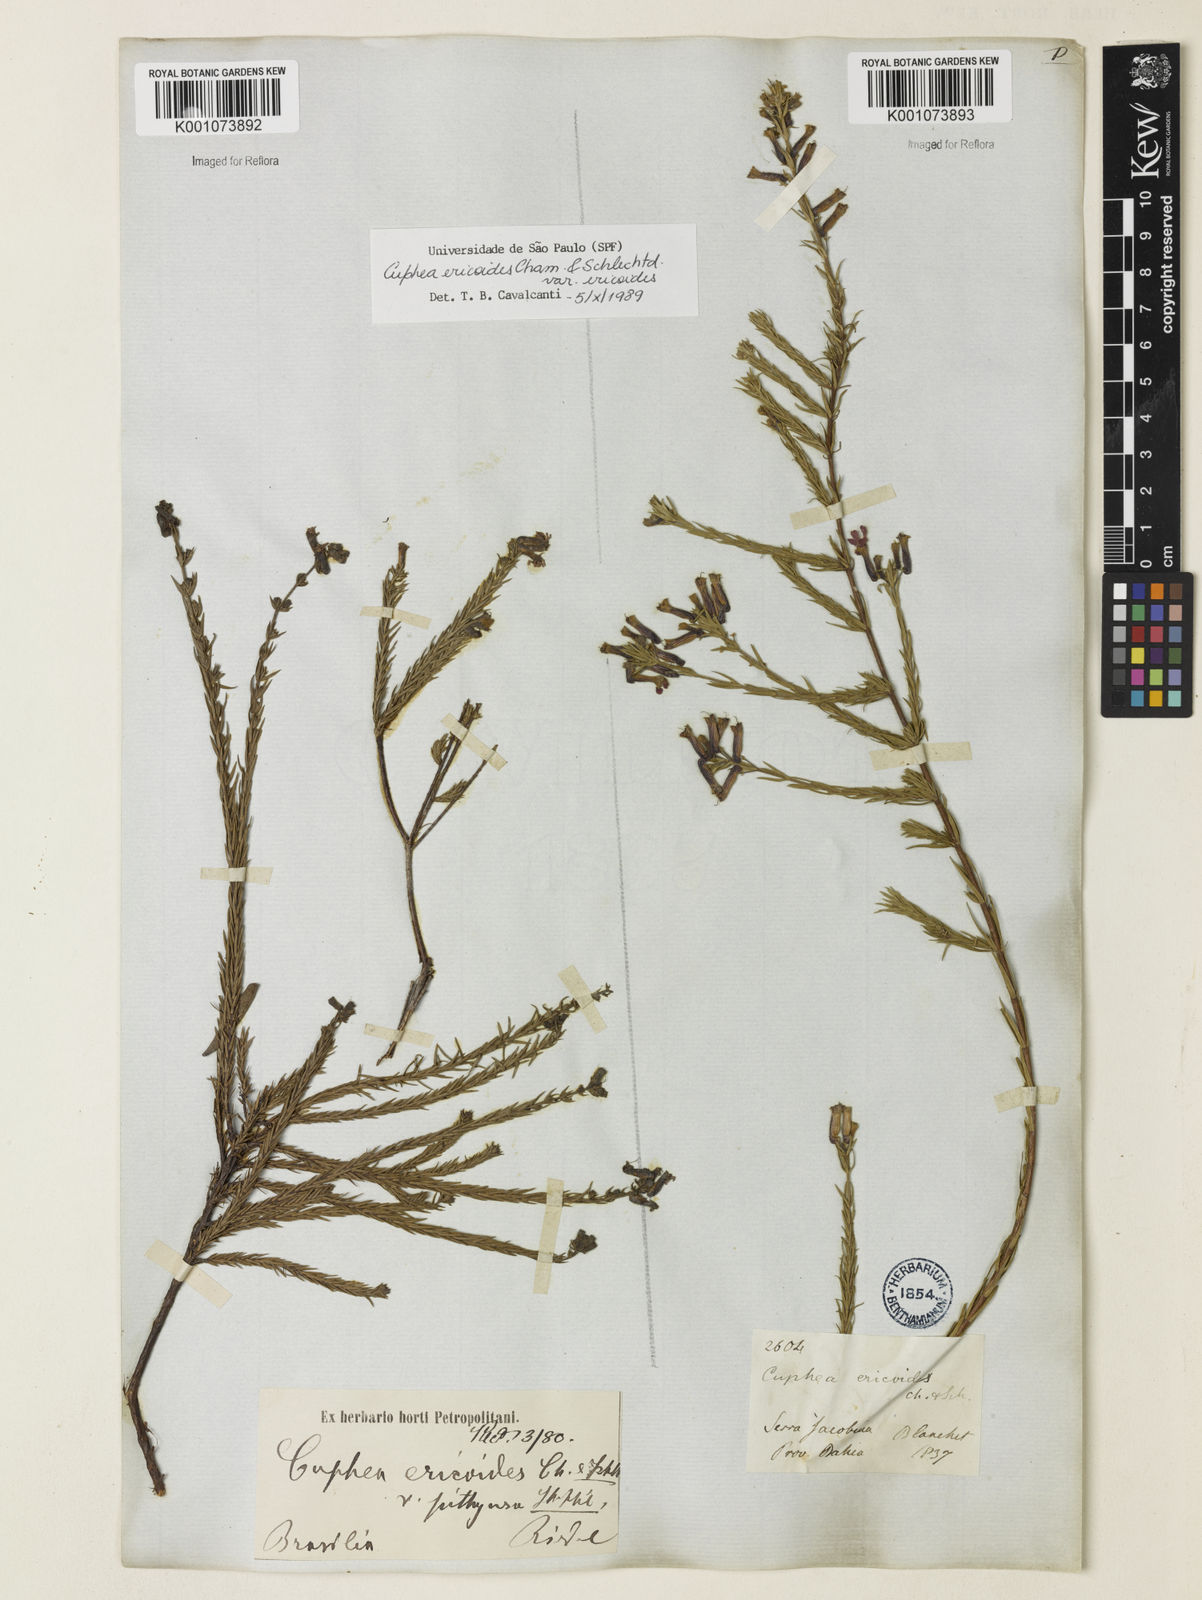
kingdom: Plantae
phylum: Tracheophyta
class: Magnoliopsida
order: Myrtales
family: Lythraceae
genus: Cuphea
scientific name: Cuphea ericoides
